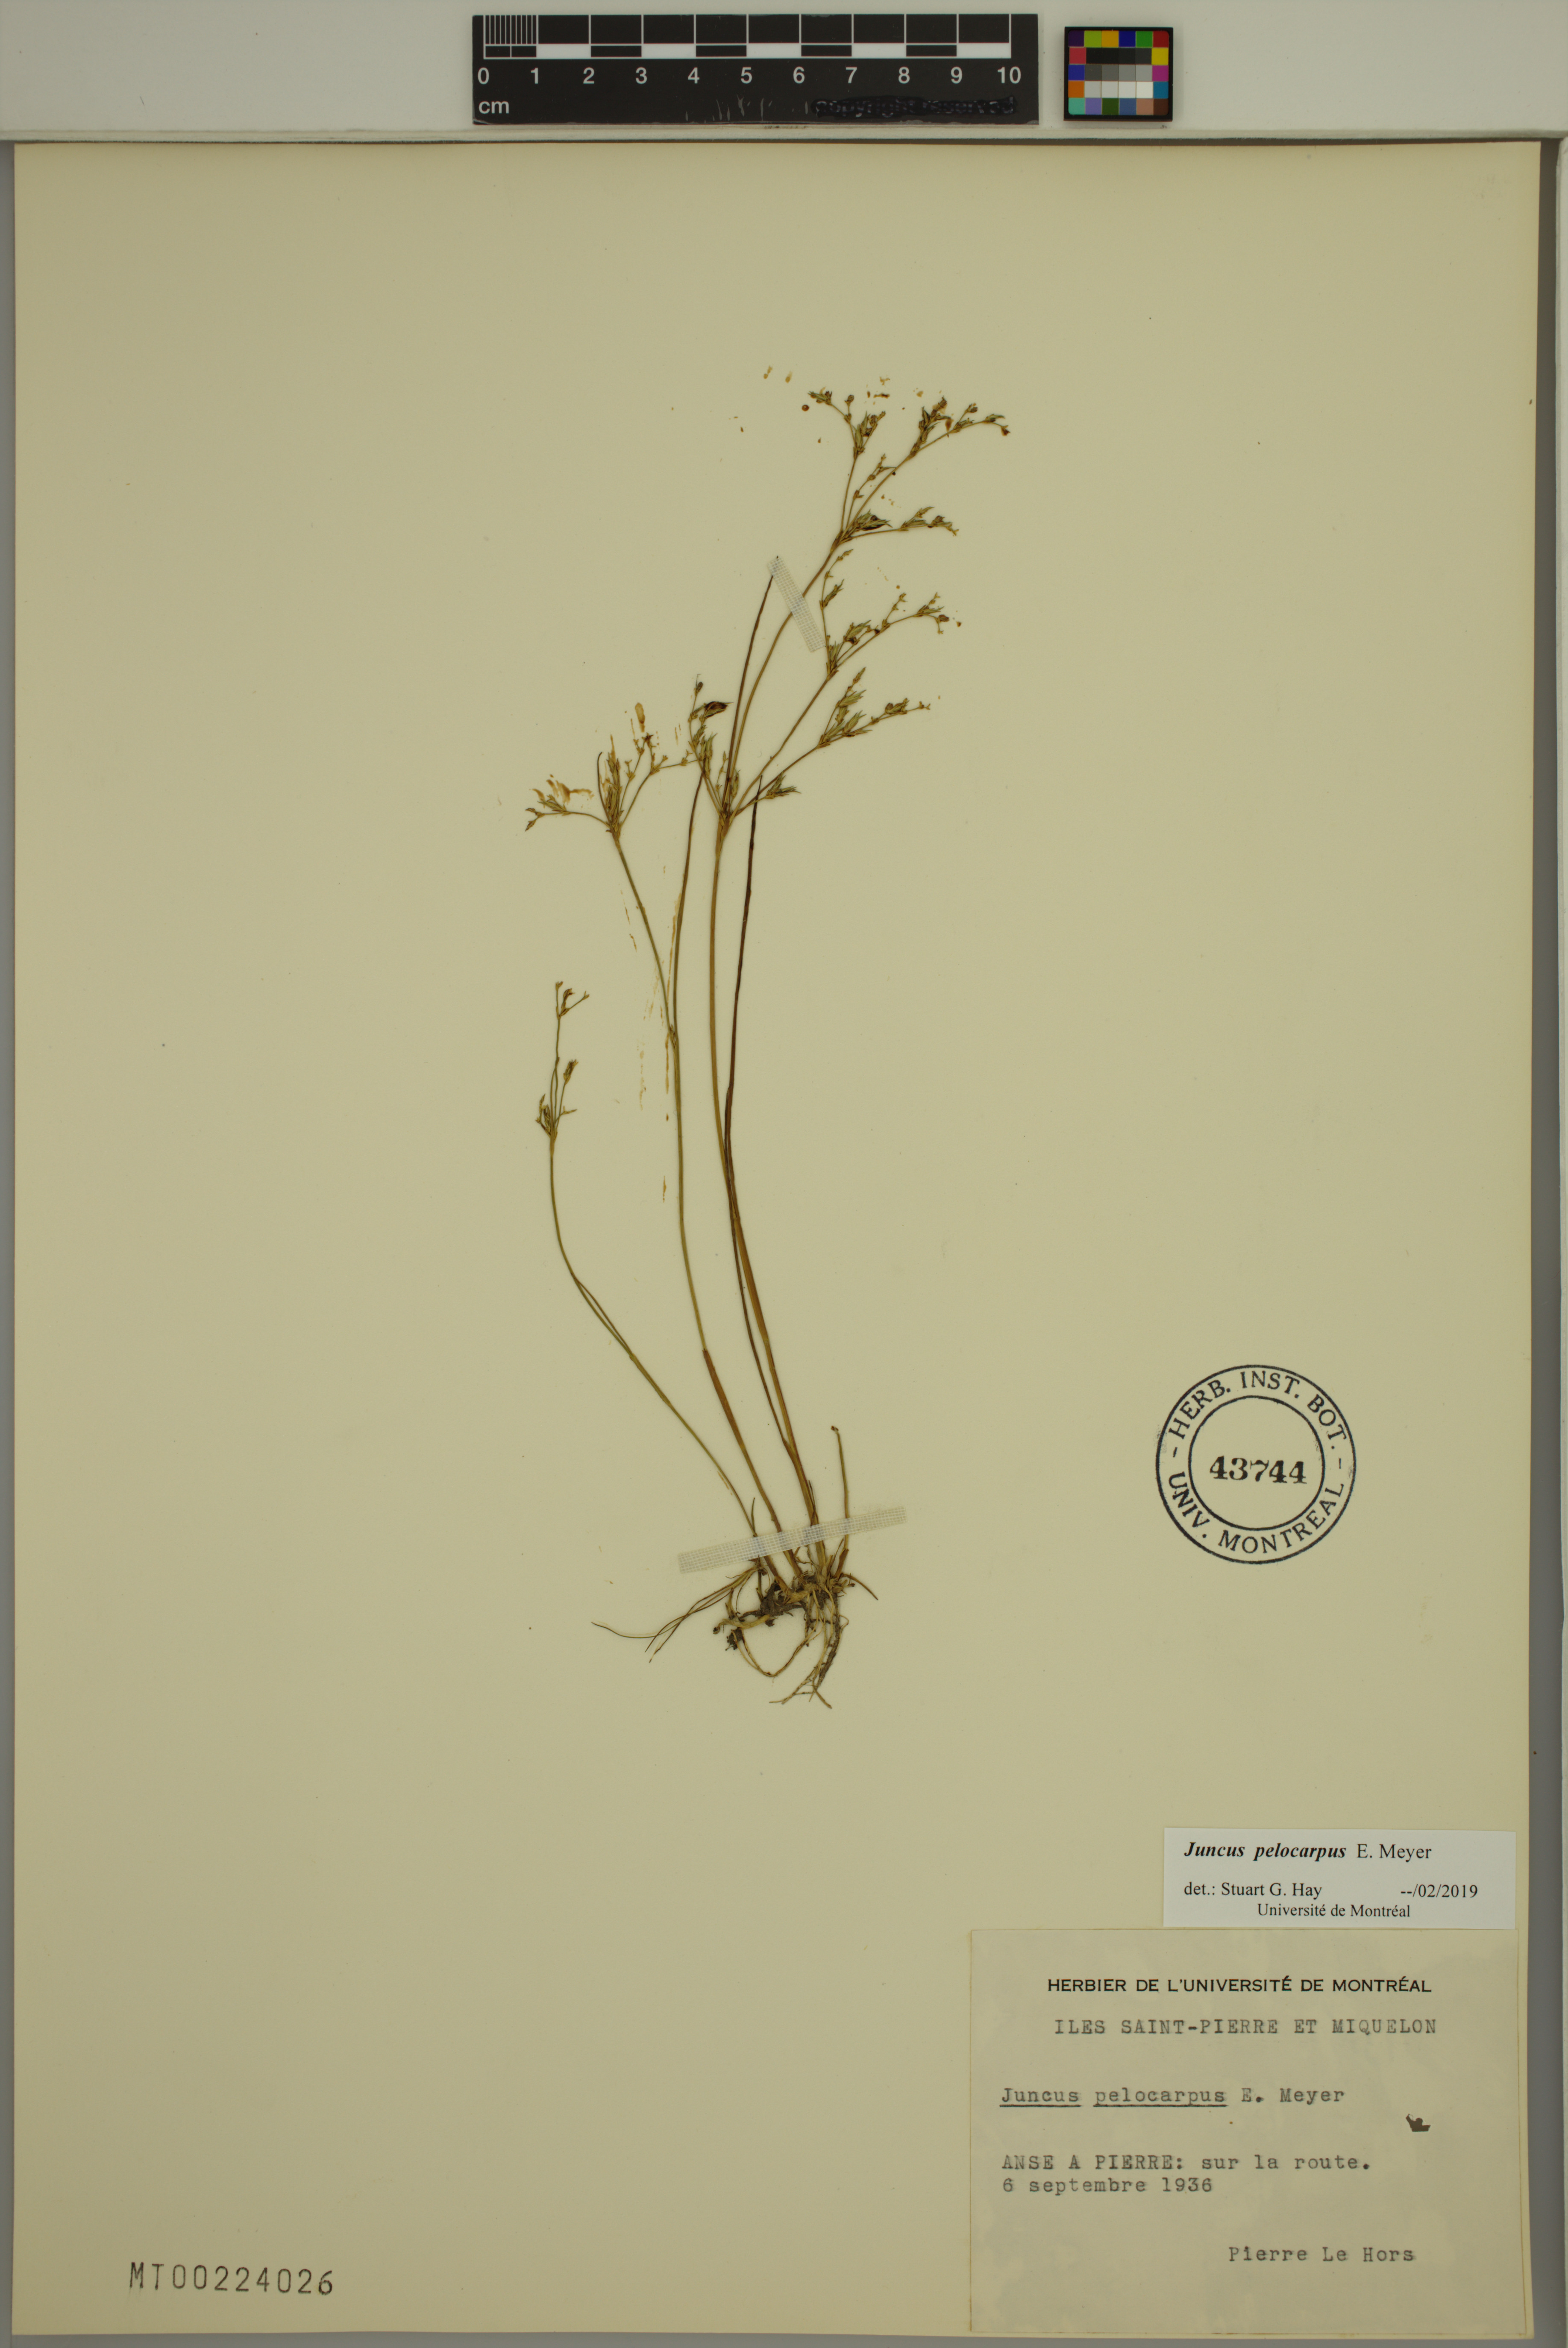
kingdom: Plantae
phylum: Tracheophyta
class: Liliopsida
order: Poales
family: Juncaceae
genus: Juncus
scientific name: Juncus pelocarpus
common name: Brown-fruited rush
